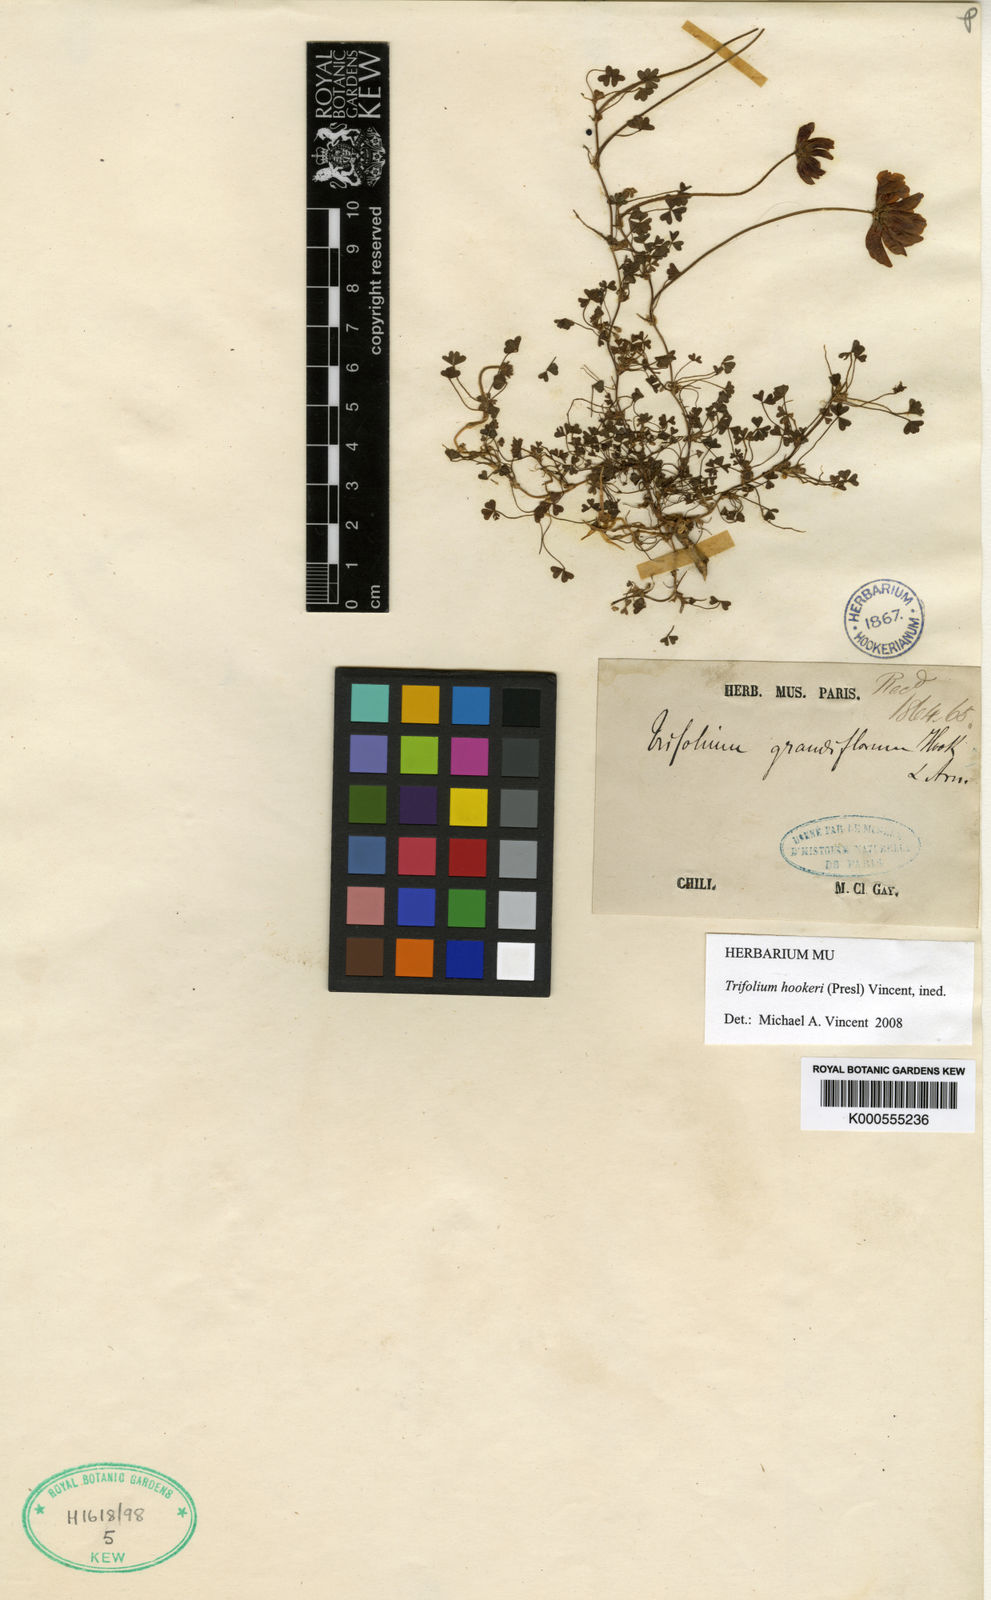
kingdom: Plantae
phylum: Tracheophyta
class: Magnoliopsida
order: Fabales
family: Fabaceae
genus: Trifolium
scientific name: Trifolium
